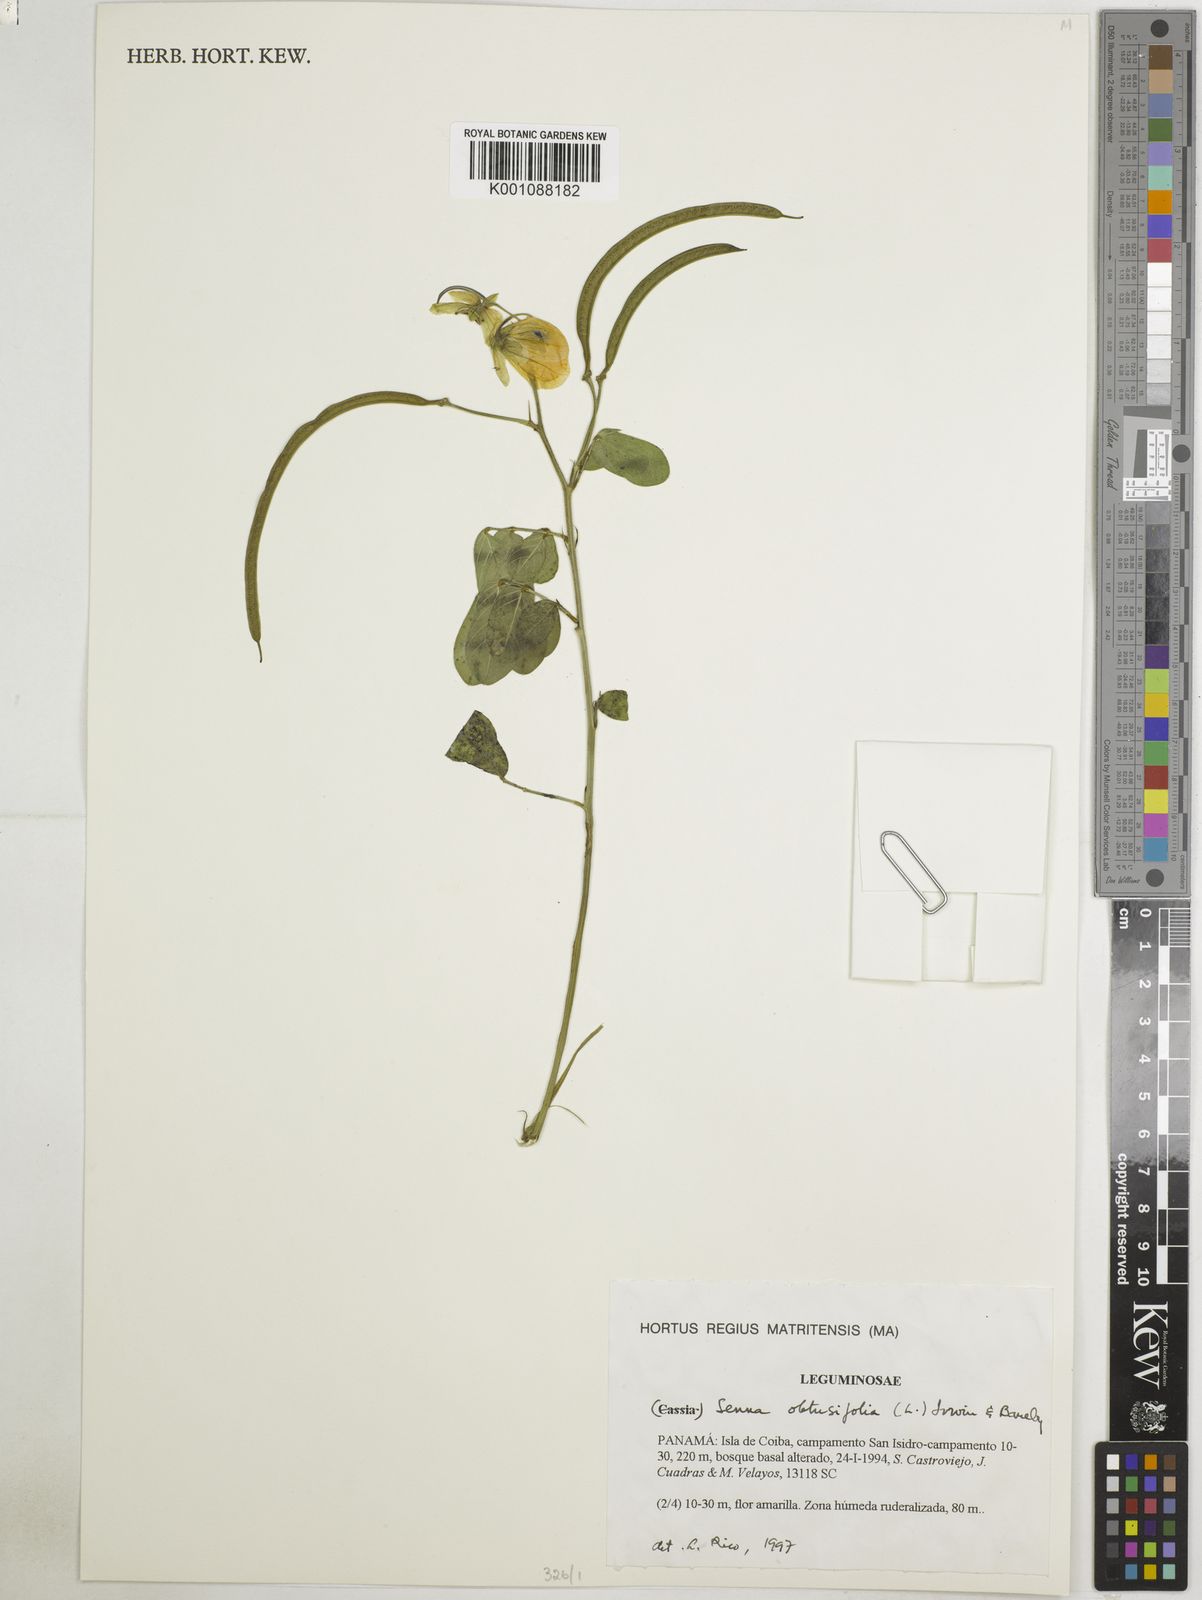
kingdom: Plantae
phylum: Tracheophyta
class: Magnoliopsida
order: Fabales
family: Fabaceae
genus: Senna
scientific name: Senna obtusifolia
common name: Java-bean
